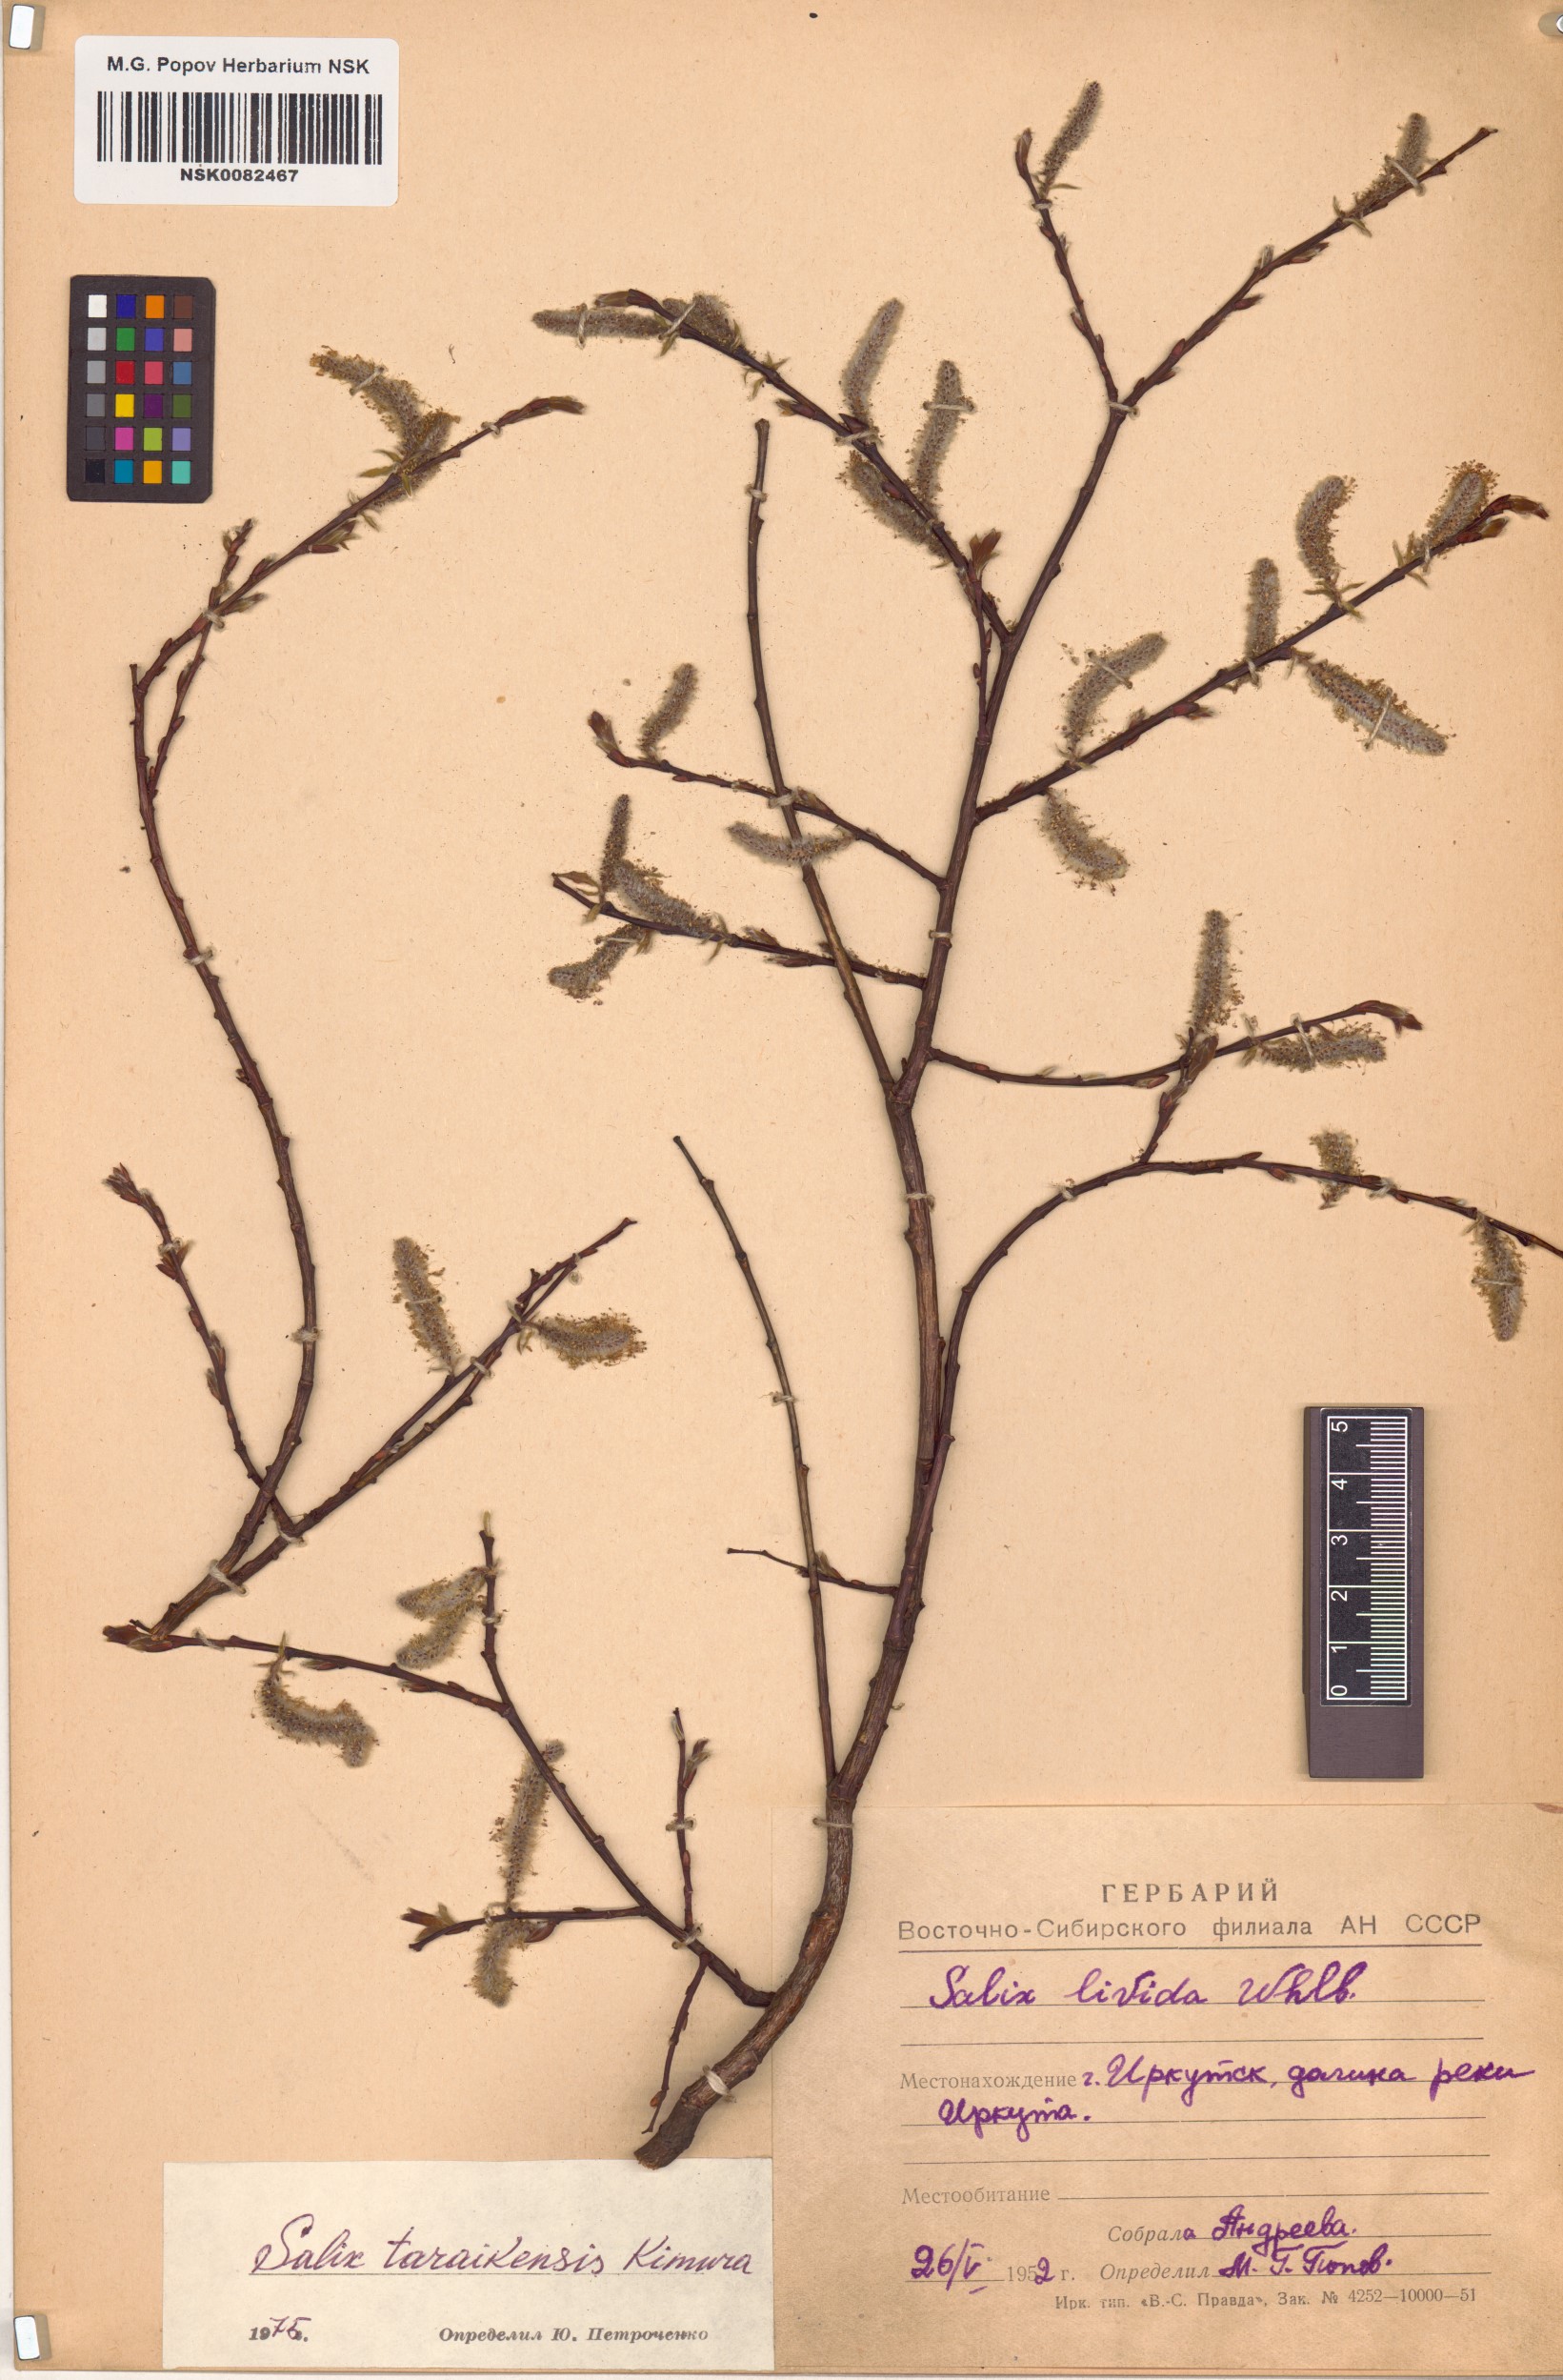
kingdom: Plantae
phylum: Tracheophyta
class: Magnoliopsida
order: Malpighiales
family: Salicaceae
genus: Salix
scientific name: Salix taraikensis
